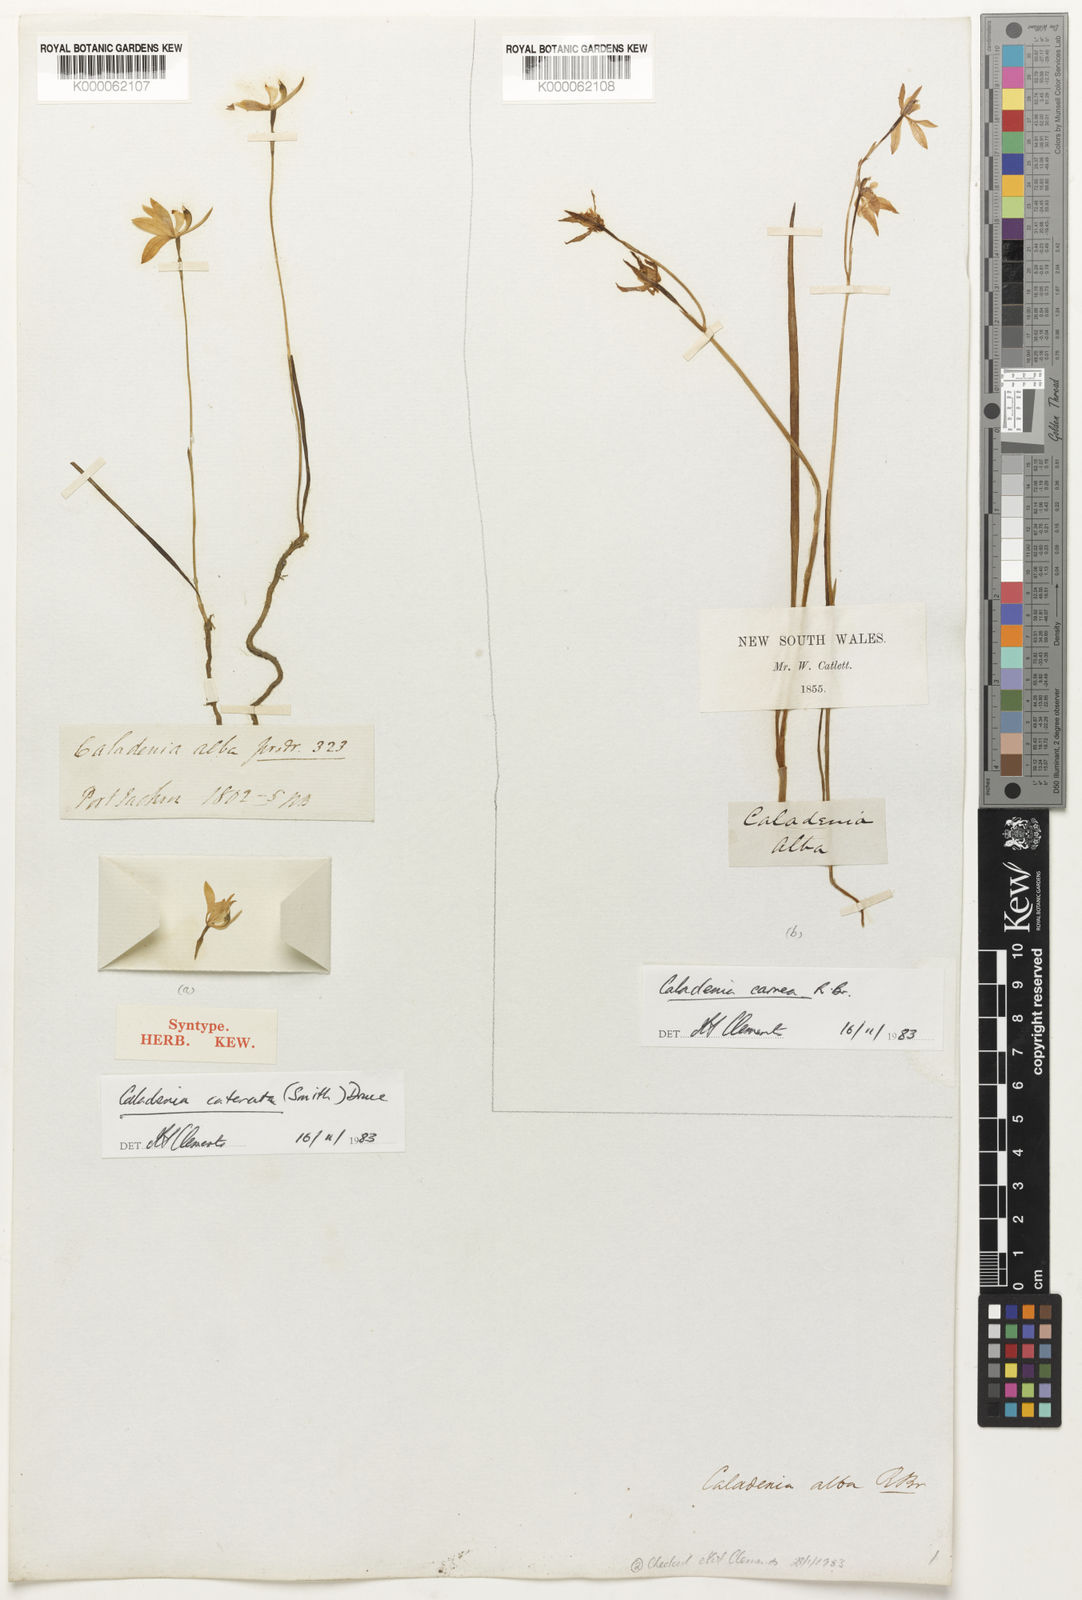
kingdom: Plantae
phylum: Tracheophyta
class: Liliopsida
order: Asparagales
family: Orchidaceae
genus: Caladenia
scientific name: Caladenia catenata
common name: White caladenia
